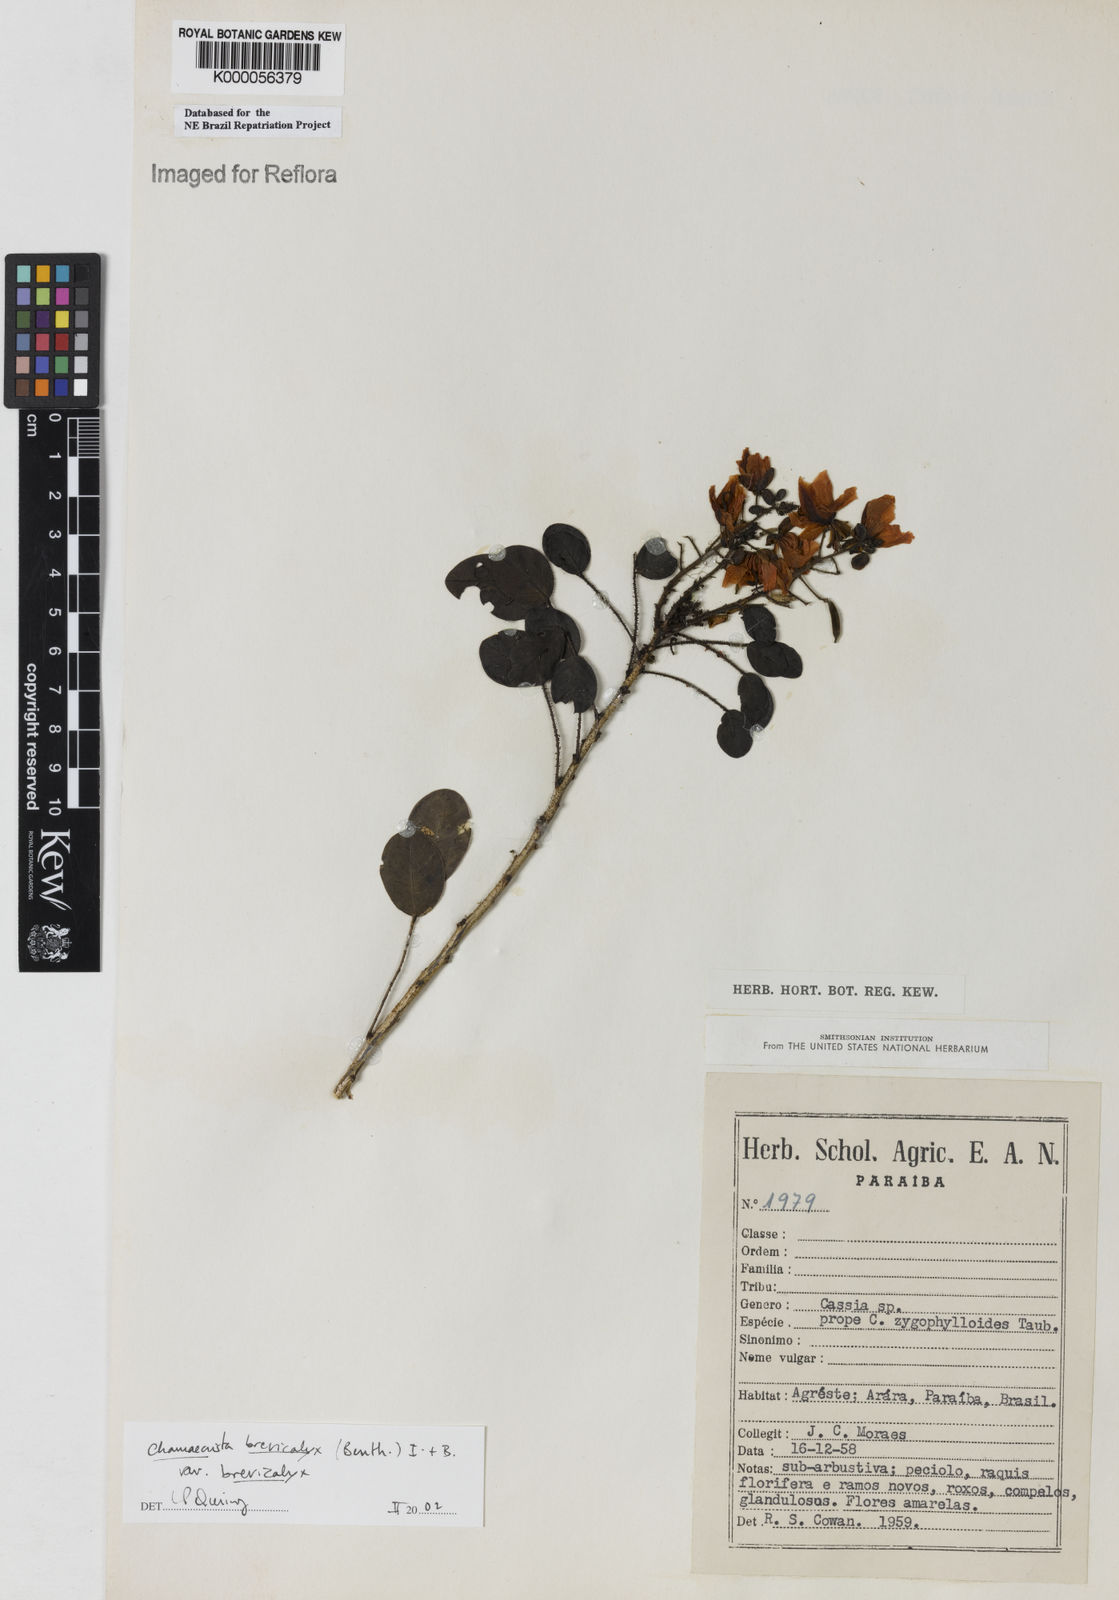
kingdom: Plantae
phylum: Tracheophyta
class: Magnoliopsida
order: Fabales
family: Fabaceae
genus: Chamaecrista
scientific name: Chamaecrista brevicalyx
